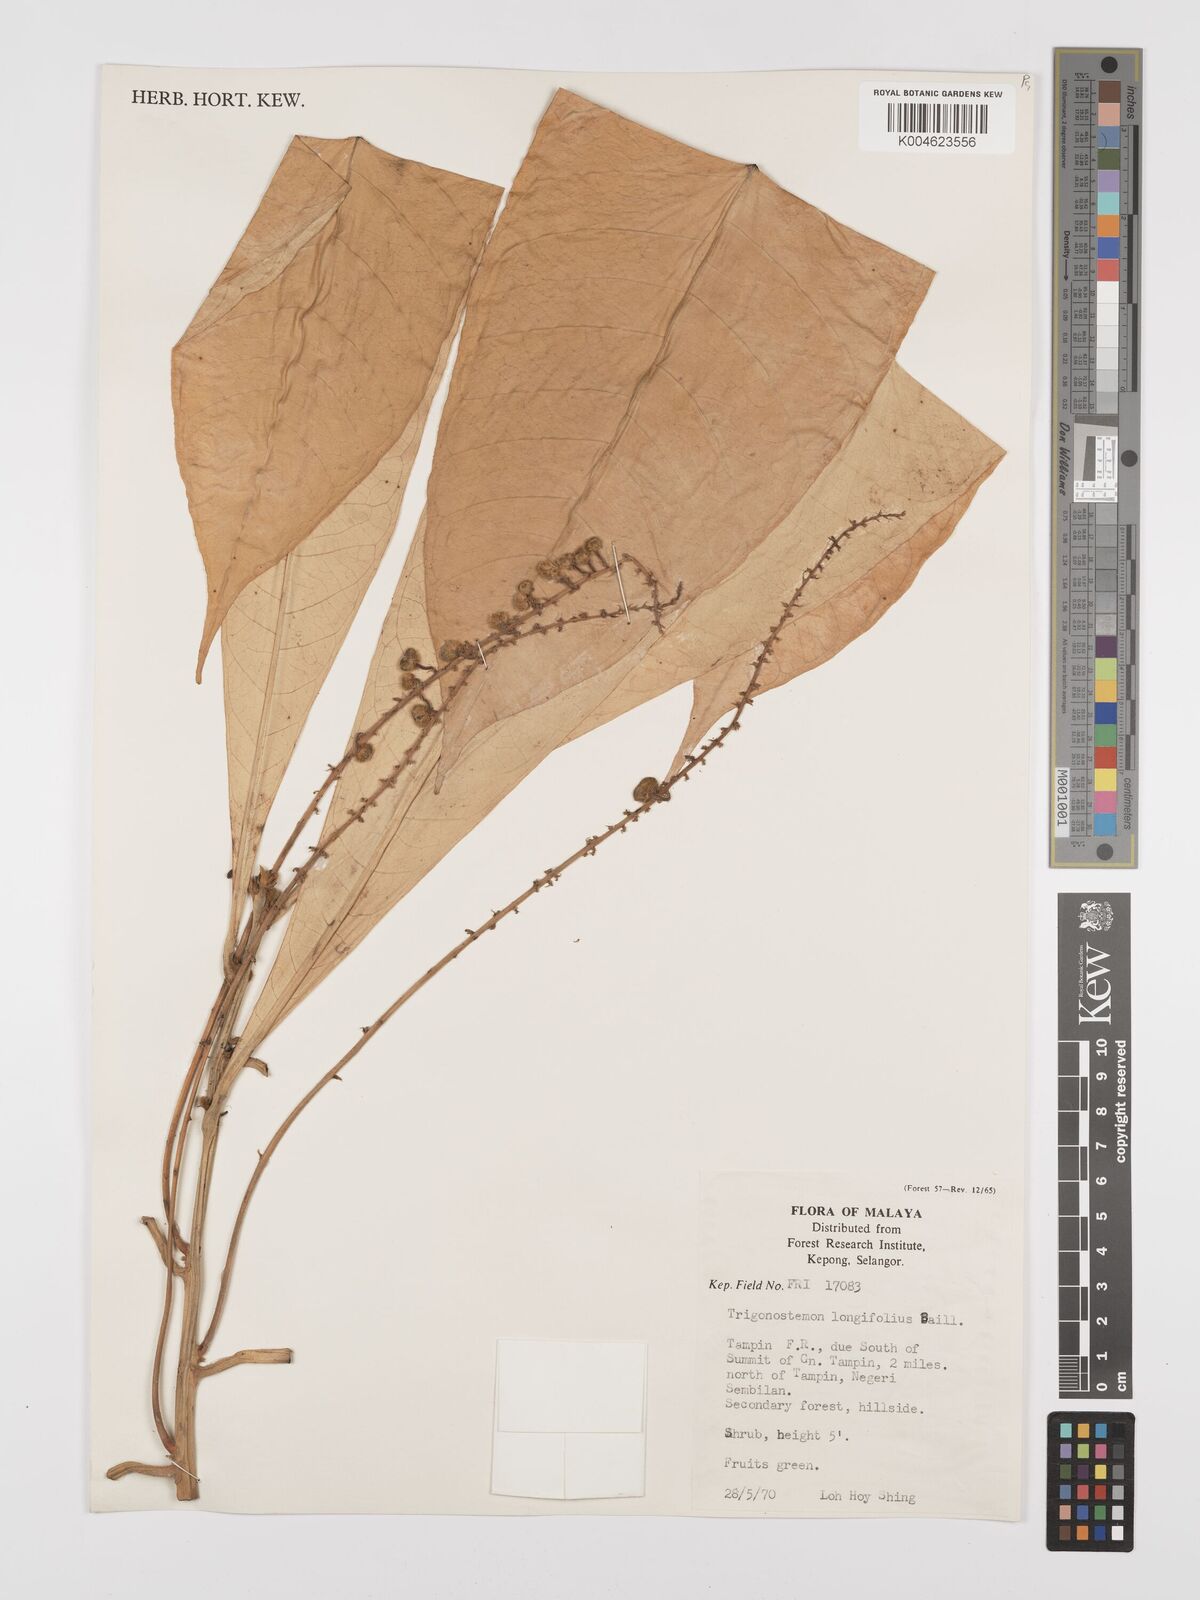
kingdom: Plantae
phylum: Tracheophyta
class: Magnoliopsida
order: Malpighiales
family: Euphorbiaceae
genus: Trigonostemon
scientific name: Trigonostemon longifolius
